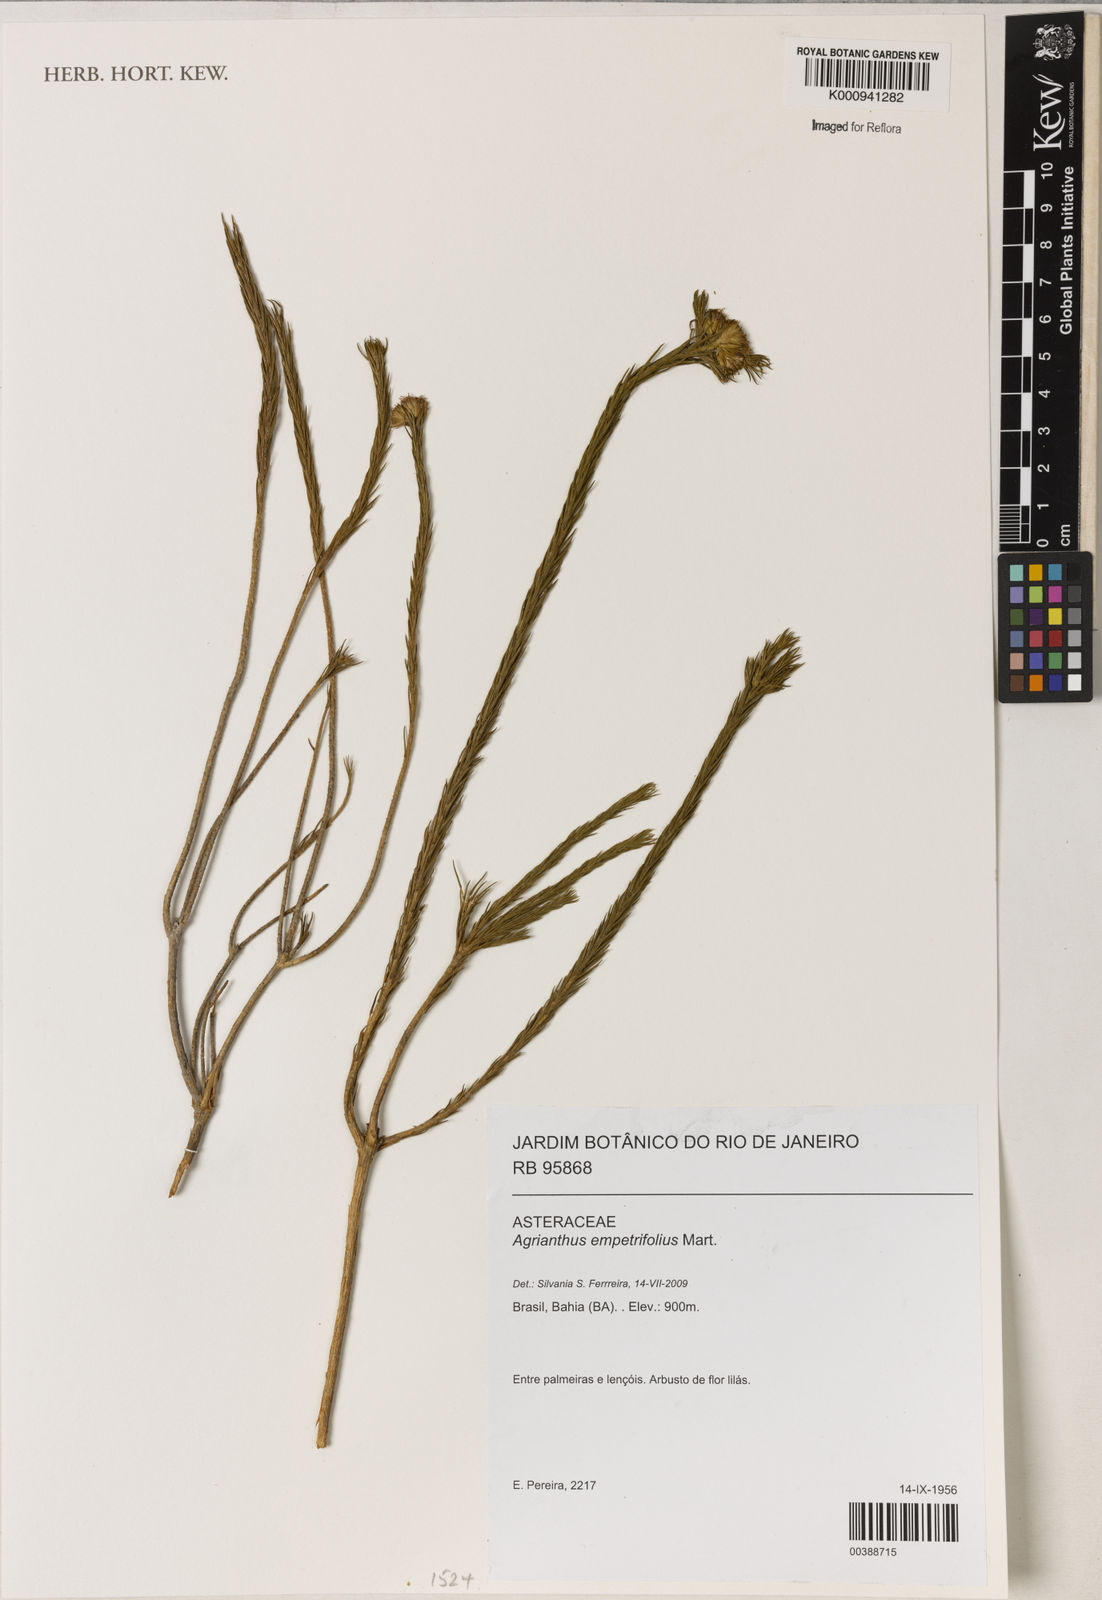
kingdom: Plantae
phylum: Tracheophyta
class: Magnoliopsida
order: Asterales
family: Asteraceae
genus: Agrianthus
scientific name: Agrianthus empetrifolius
